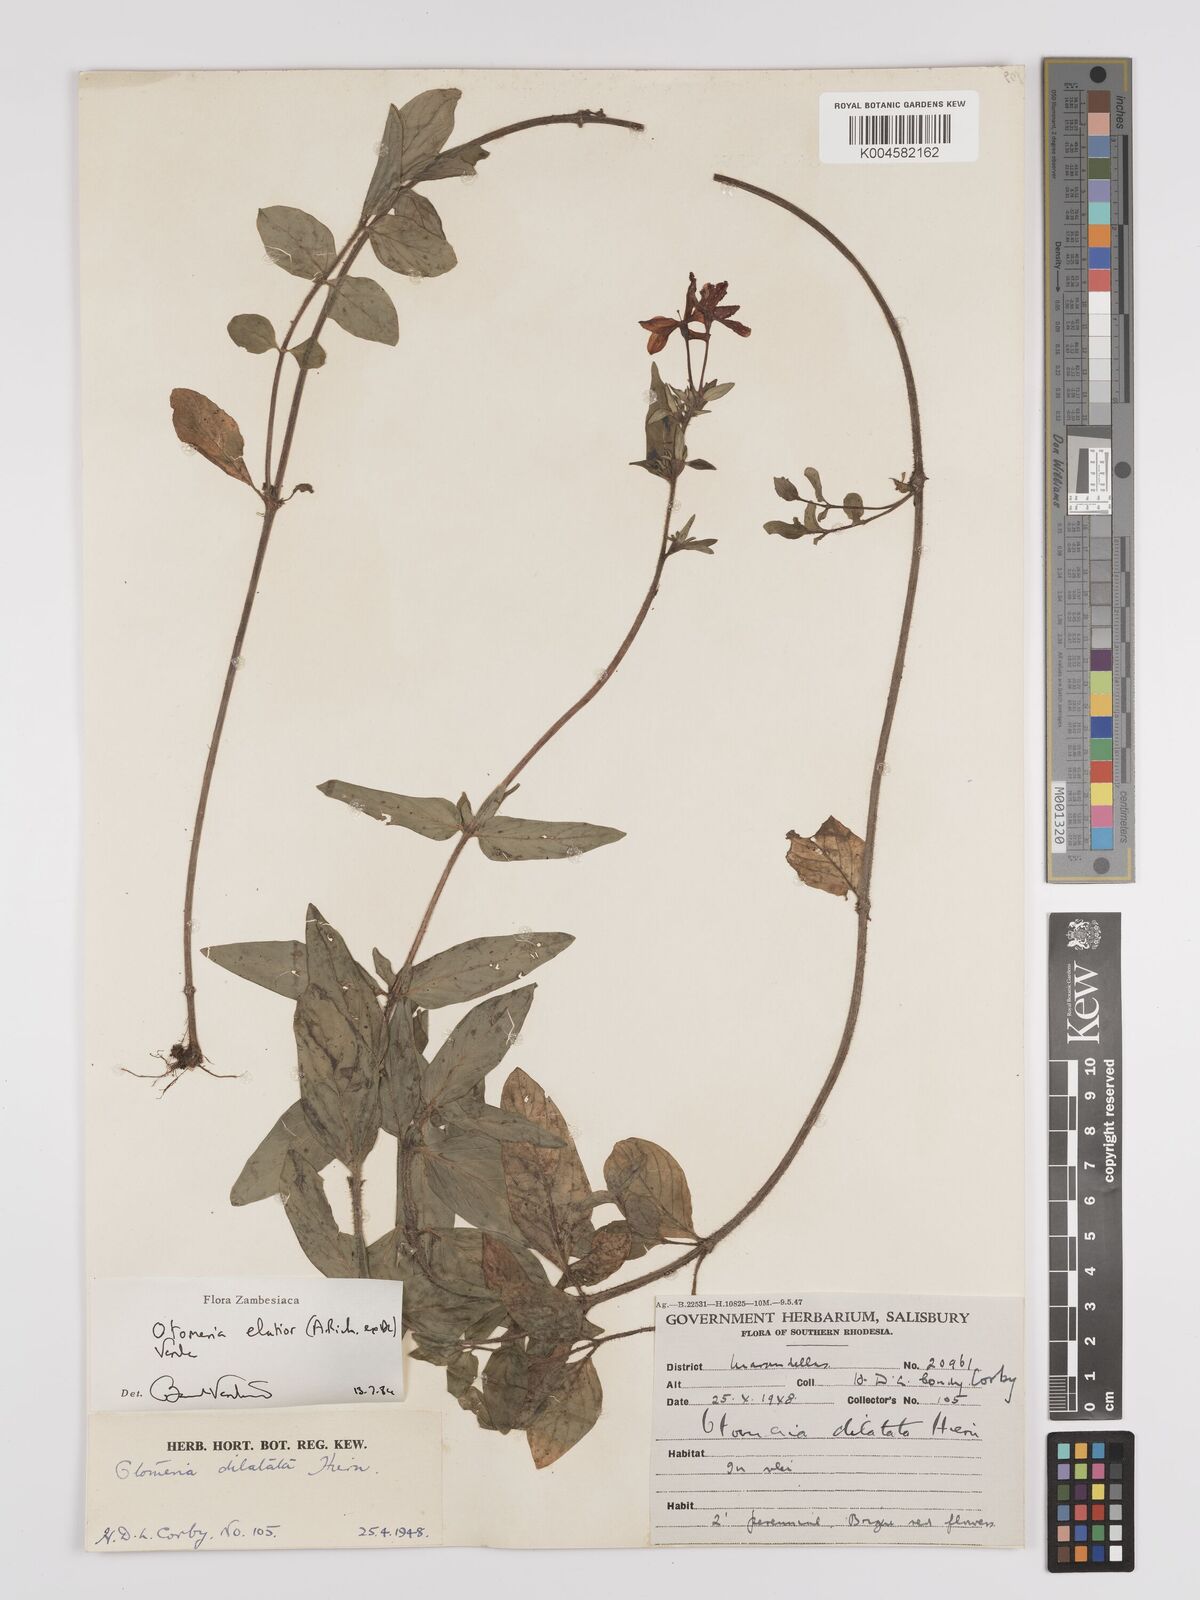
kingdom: Plantae
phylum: Tracheophyta
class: Magnoliopsida
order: Gentianales
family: Rubiaceae
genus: Otomeria
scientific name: Otomeria elatior
